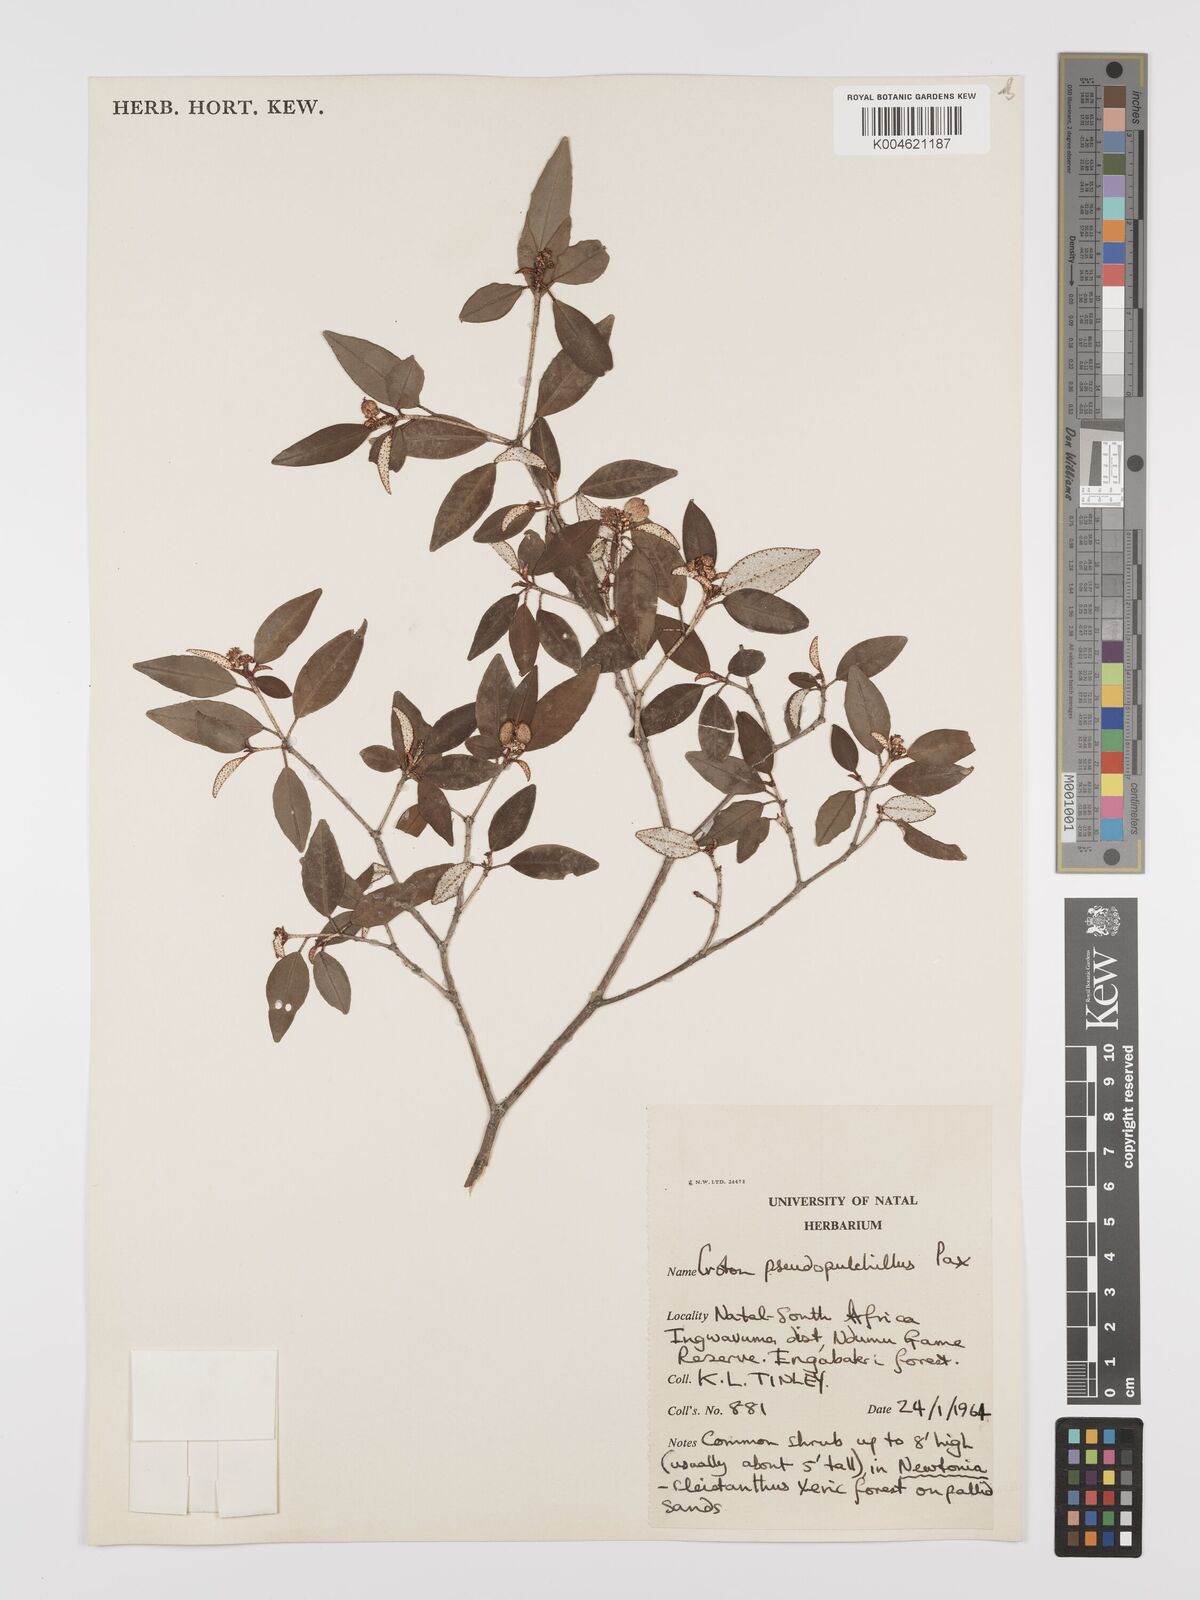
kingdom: Plantae
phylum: Tracheophyta
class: Magnoliopsida
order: Malpighiales
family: Euphorbiaceae
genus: Croton
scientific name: Croton pseudopulchellus
